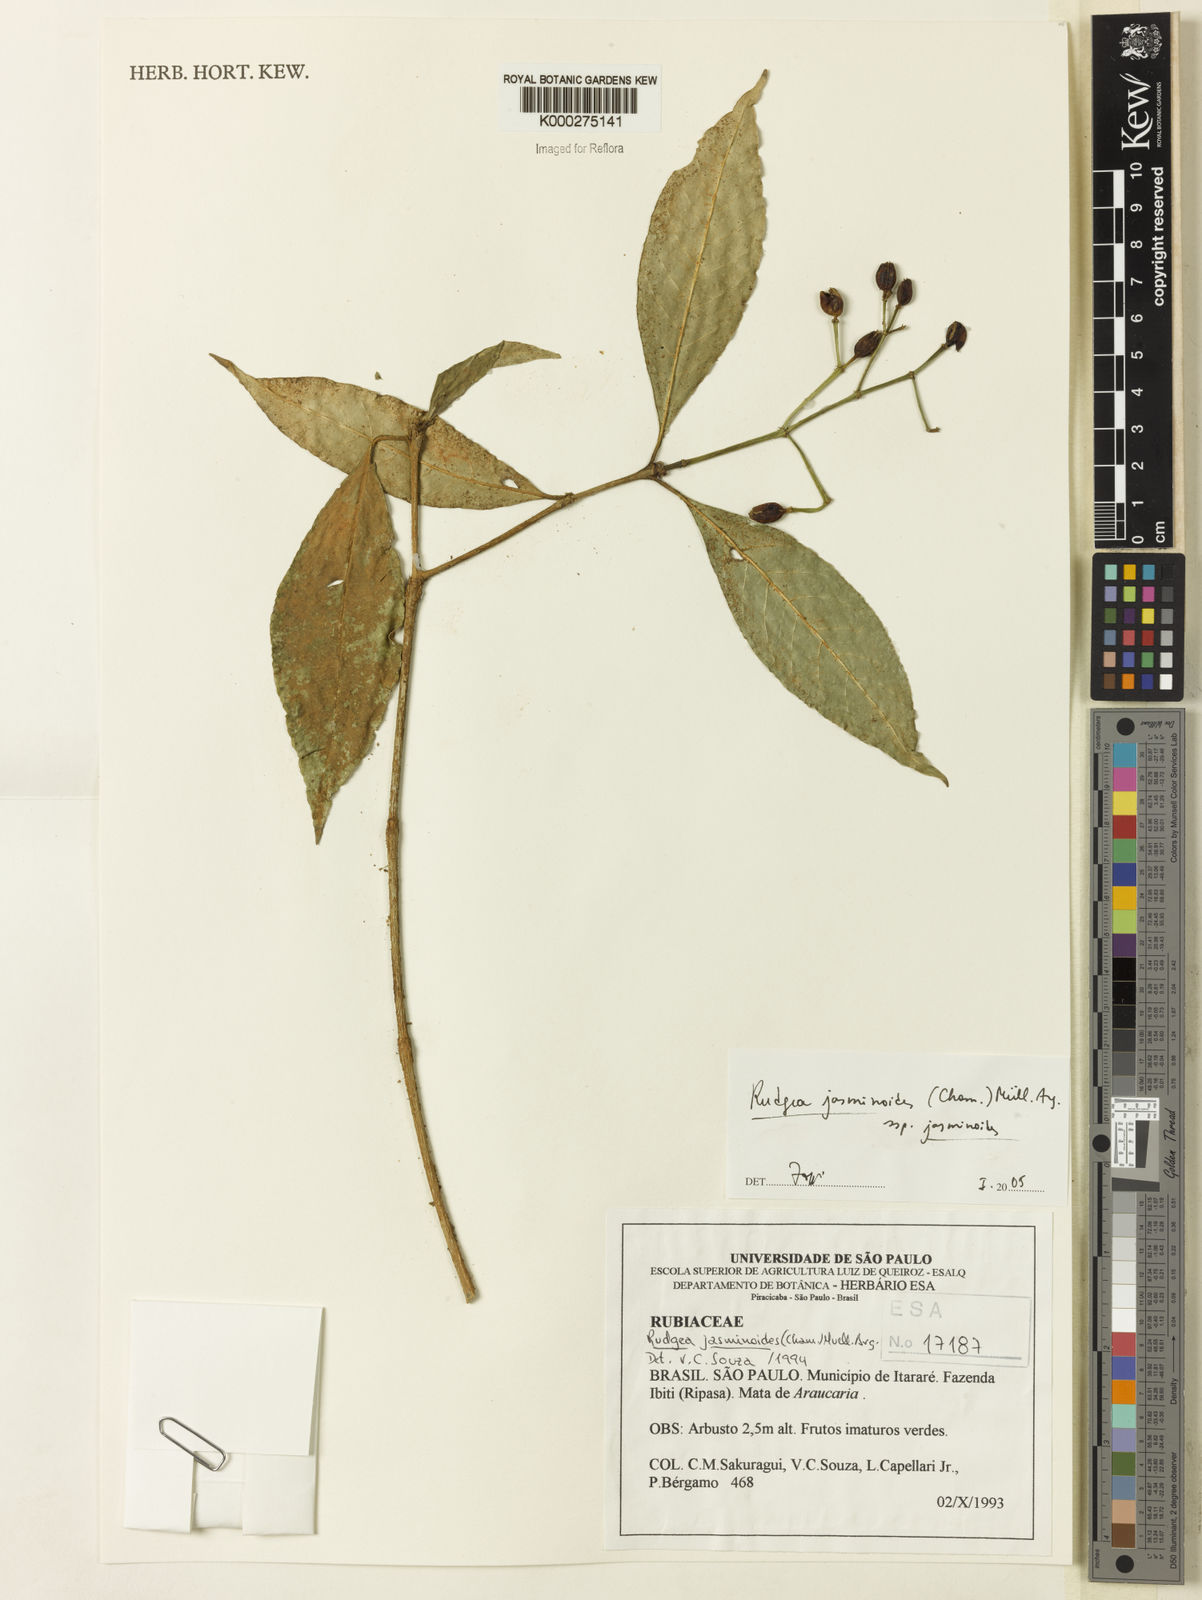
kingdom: Plantae
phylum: Tracheophyta
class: Magnoliopsida
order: Gentianales
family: Rubiaceae
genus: Rudgea
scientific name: Rudgea jasminoides
